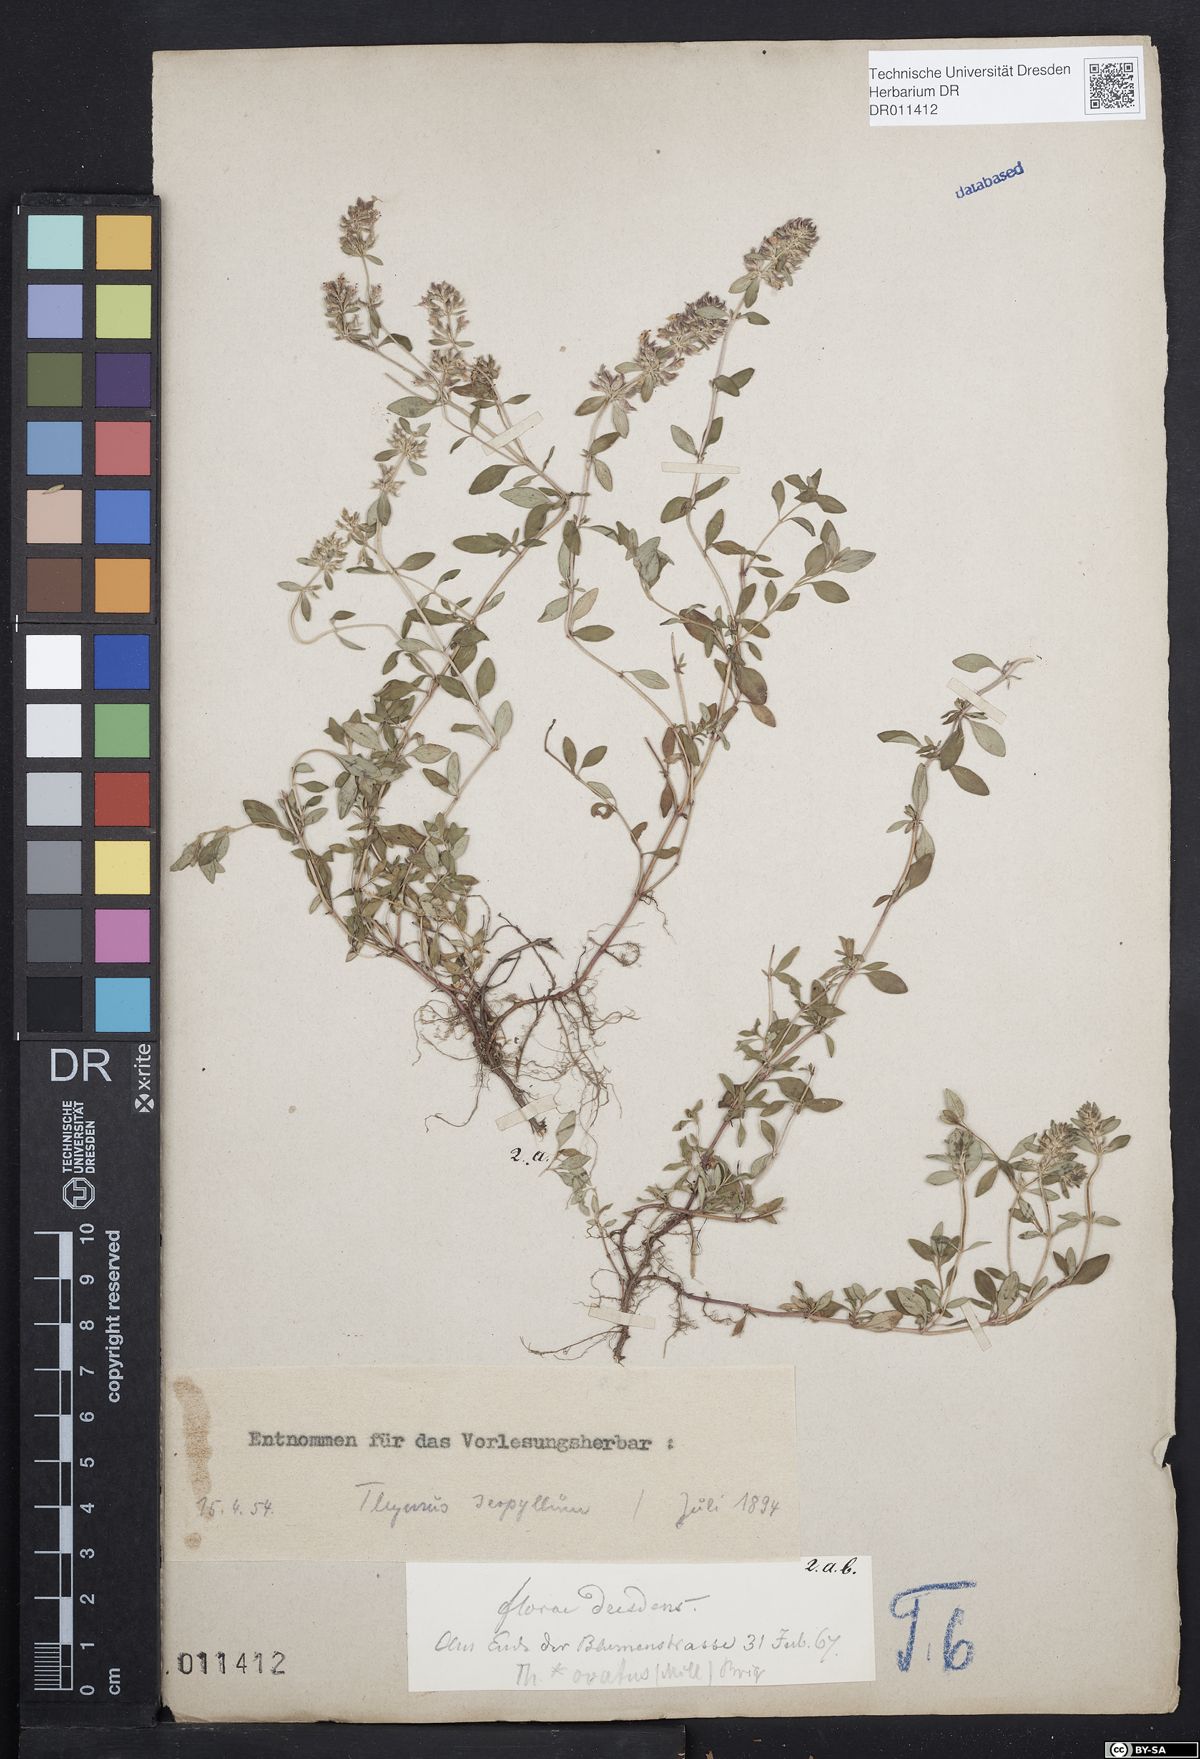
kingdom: Plantae
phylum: Tracheophyta
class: Magnoliopsida
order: Lamiales
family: Lamiaceae
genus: Thymus
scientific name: Thymus pulegioides
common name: Large thyme
